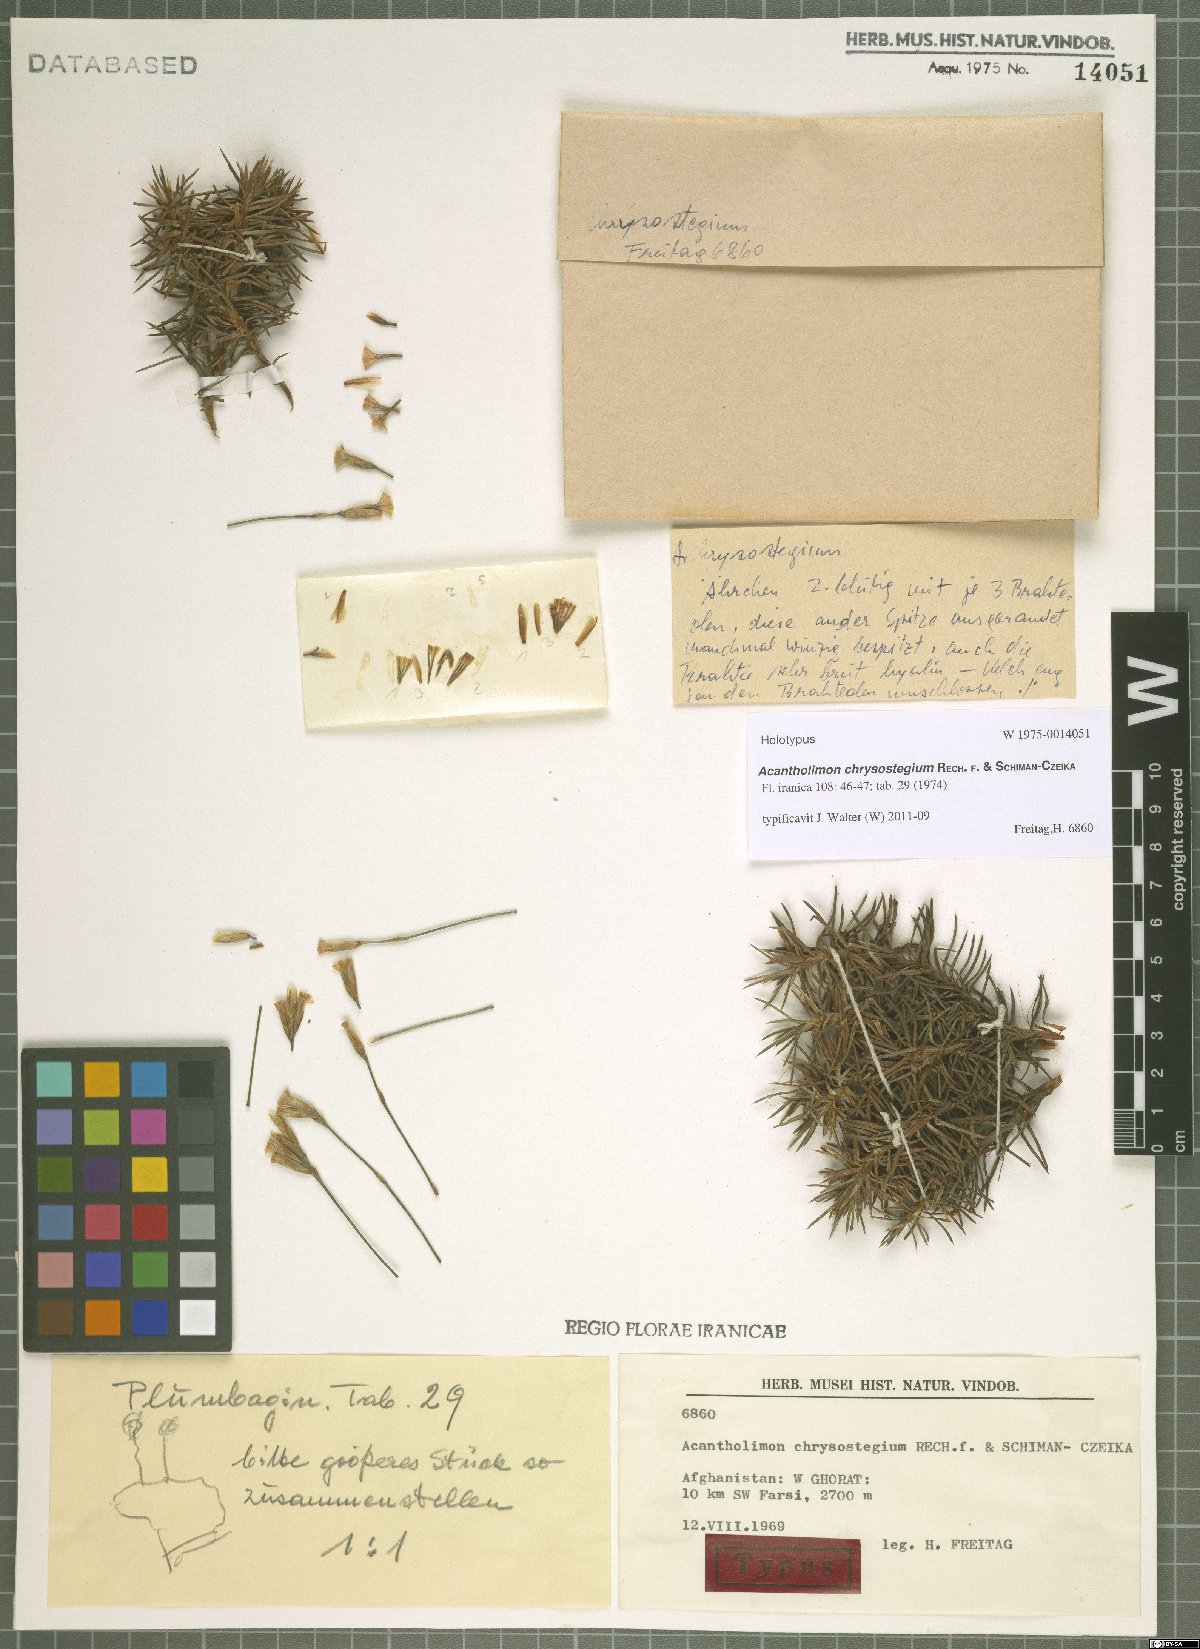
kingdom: Plantae
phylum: Tracheophyta
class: Magnoliopsida
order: Caryophyllales
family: Plumbaginaceae
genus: Acantholimon
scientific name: Acantholimon chrysostegium
